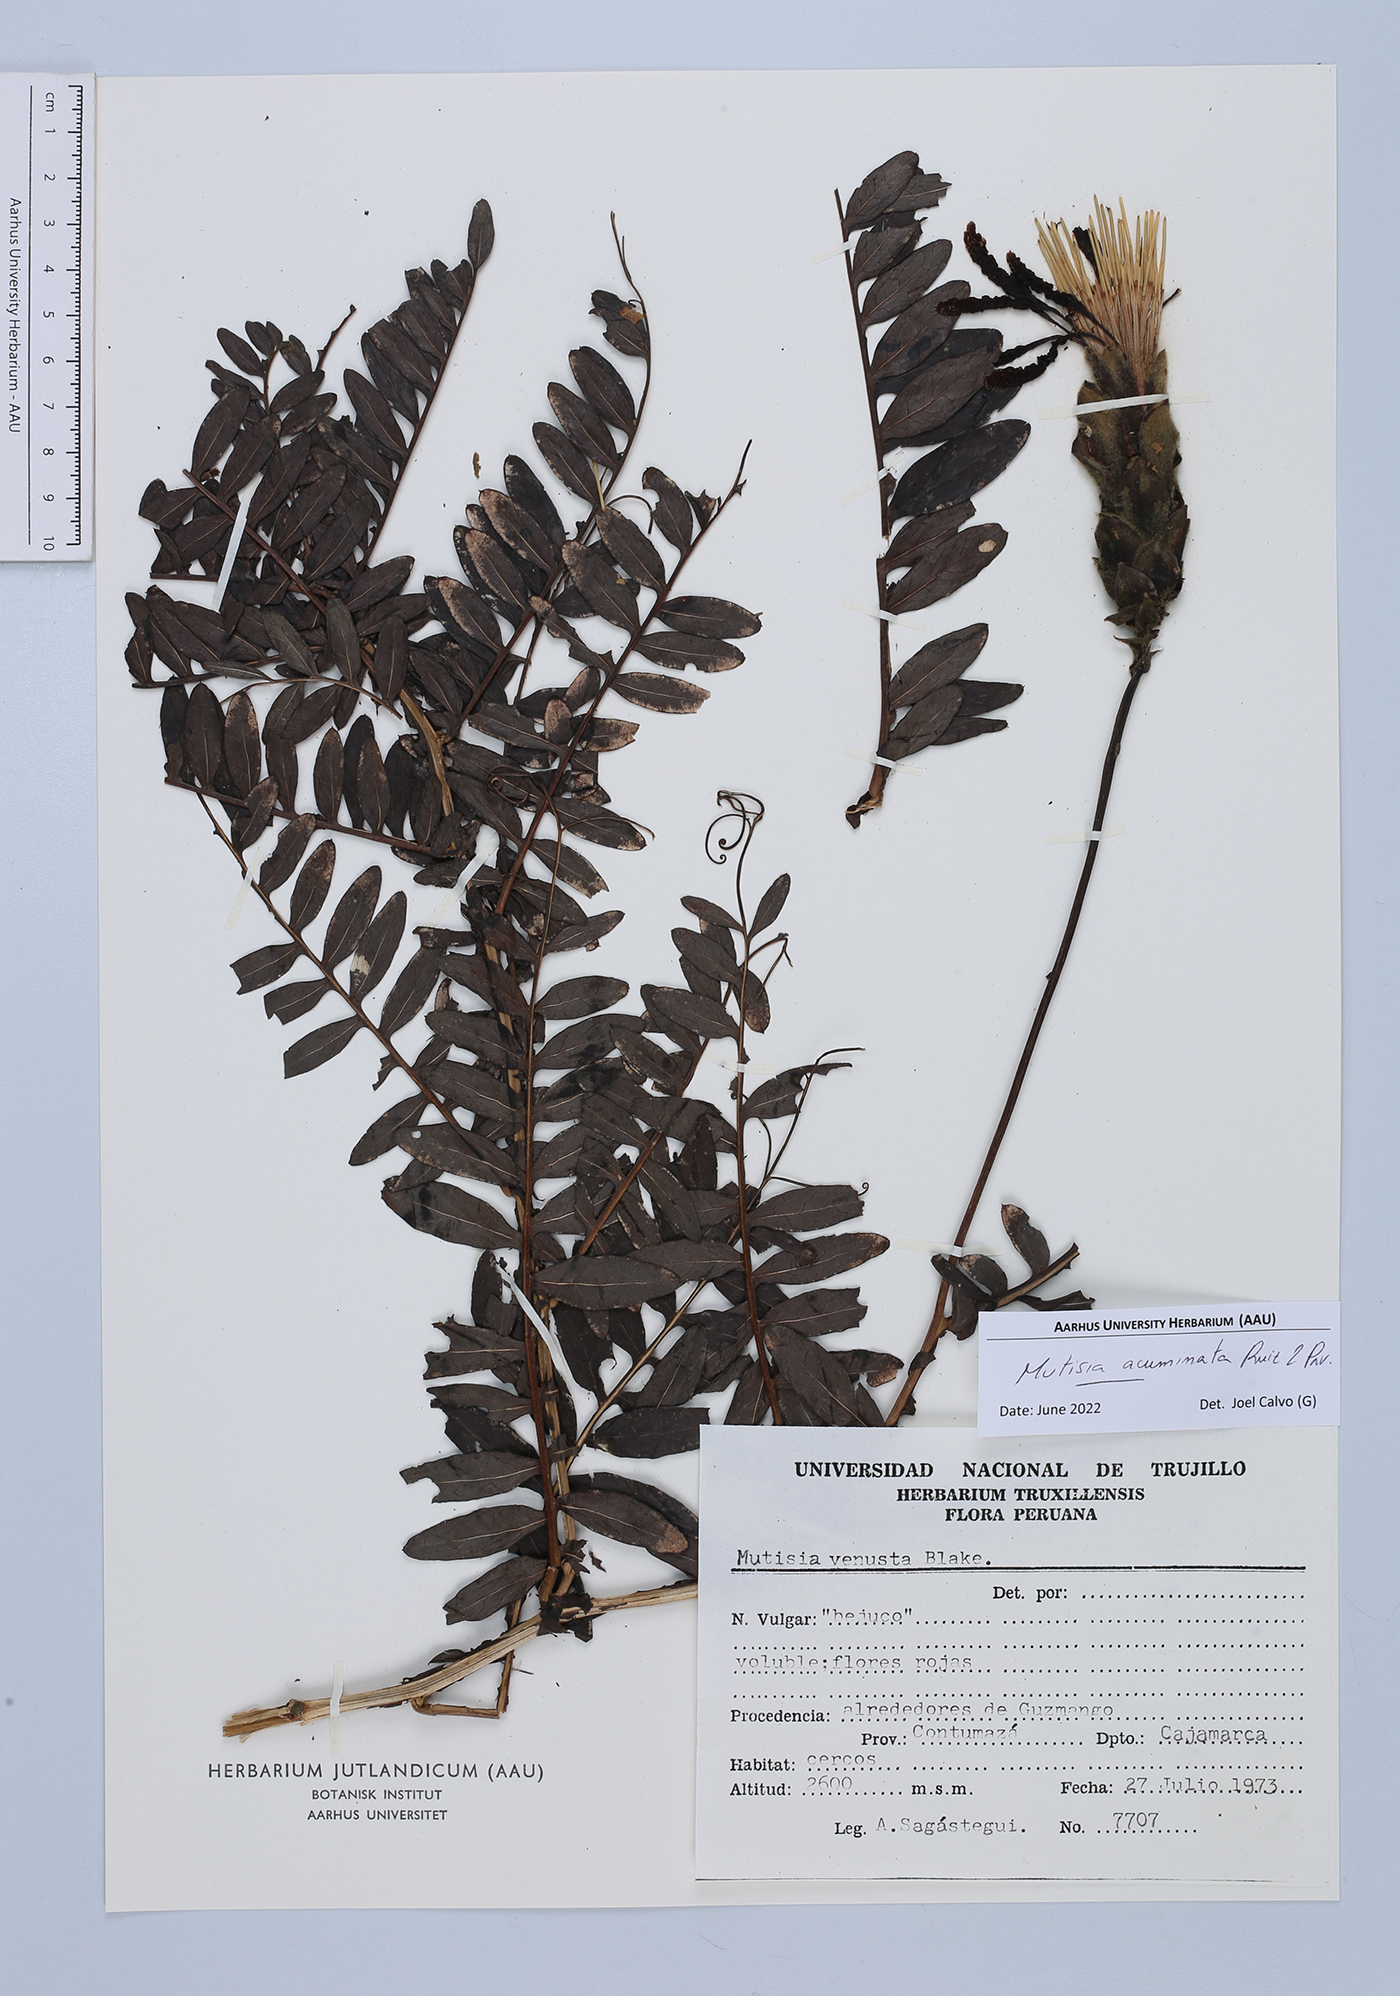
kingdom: Plantae
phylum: Tracheophyta
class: Magnoliopsida
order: Asterales
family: Asteraceae
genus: Mutisia
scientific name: Mutisia acuminata
